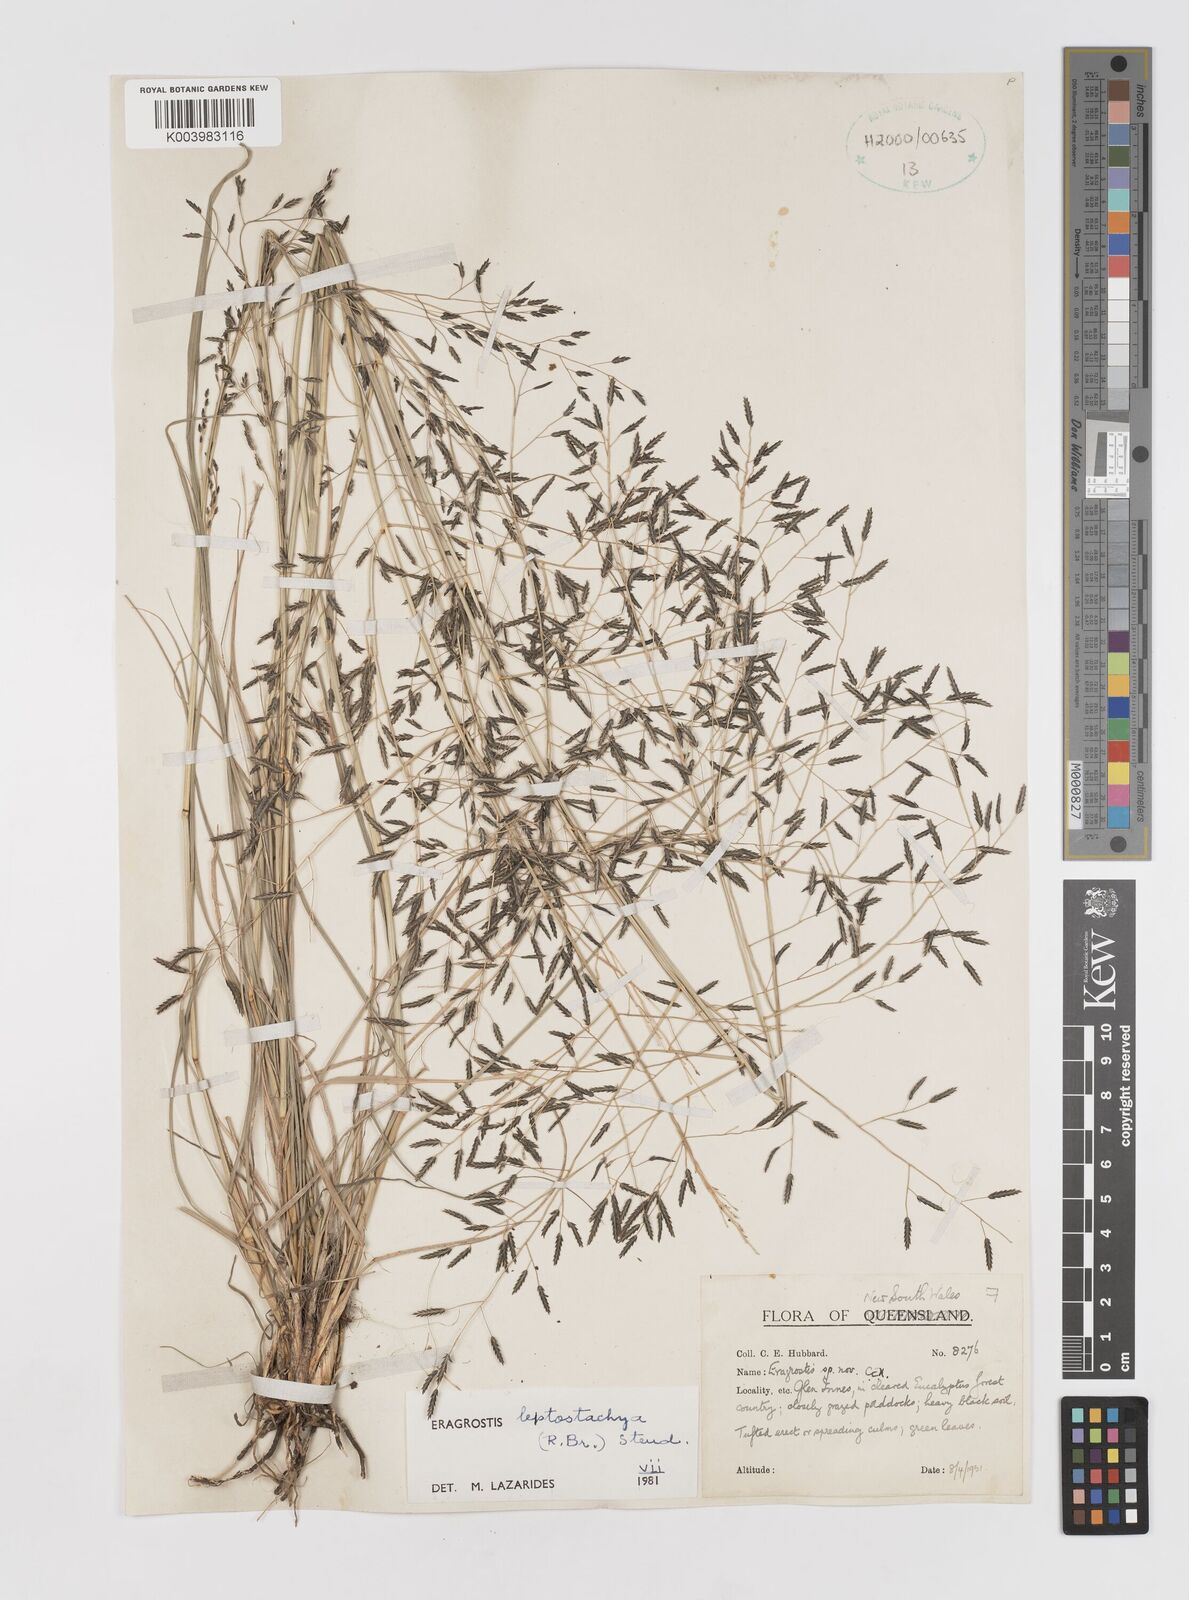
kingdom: Plantae
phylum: Tracheophyta
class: Liliopsida
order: Poales
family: Poaceae
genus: Eragrostis
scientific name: Eragrostis leptostachya
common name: Australian lovegrass
